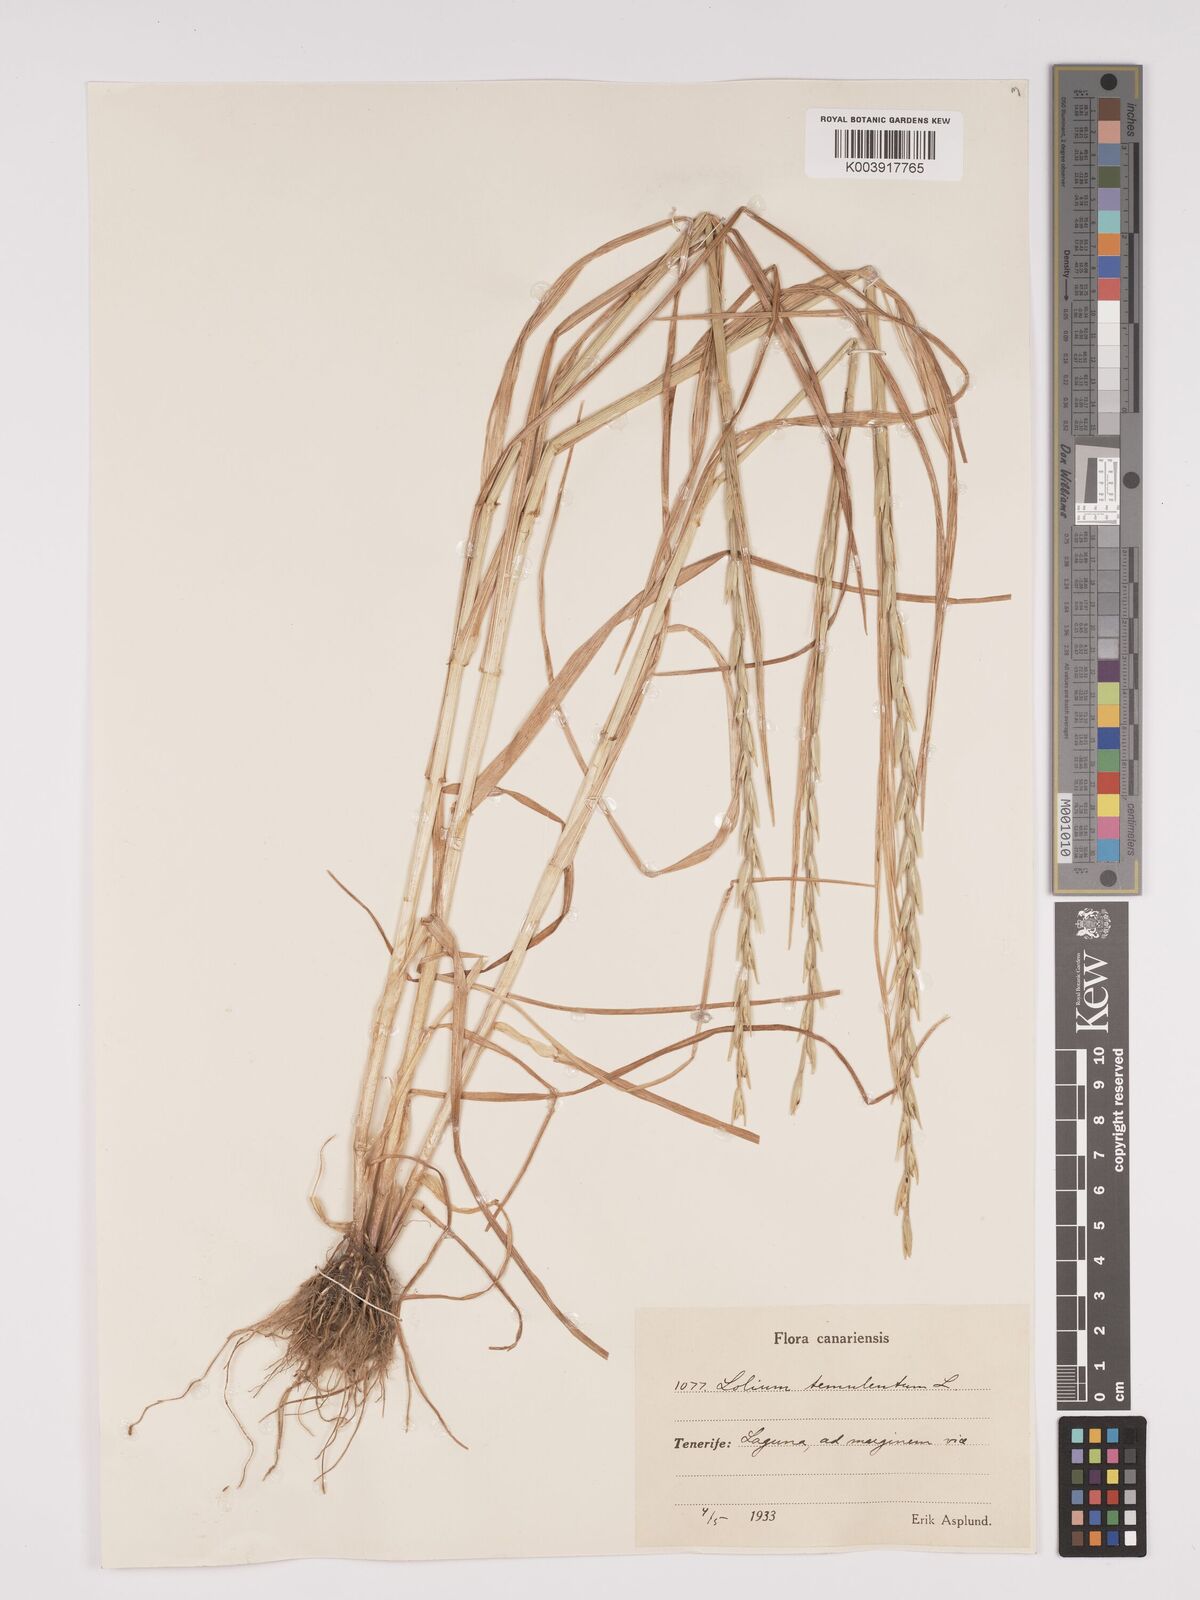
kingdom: Plantae
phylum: Tracheophyta
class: Liliopsida
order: Poales
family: Poaceae
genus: Lolium
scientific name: Lolium temulentum
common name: Darnel
